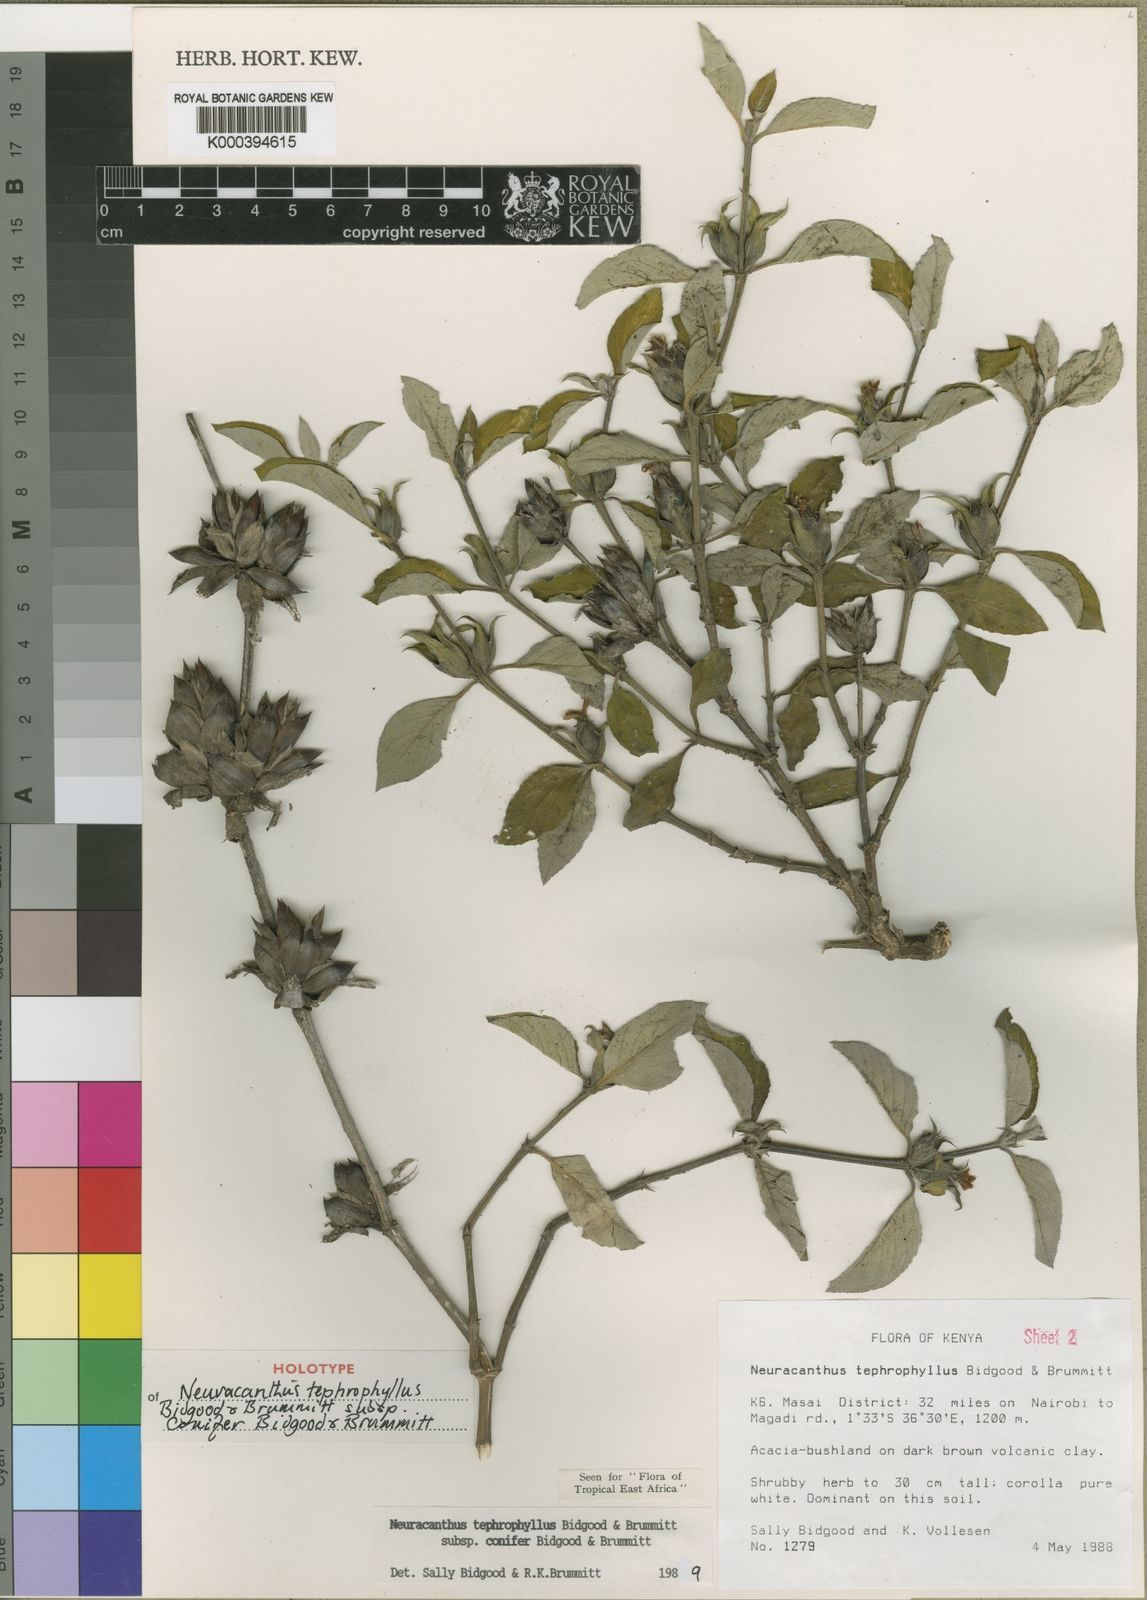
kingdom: Plantae
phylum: Tracheophyta
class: Magnoliopsida
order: Lamiales
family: Acanthaceae
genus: Neuracanthus
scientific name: Neuracanthus tephrophyllus
